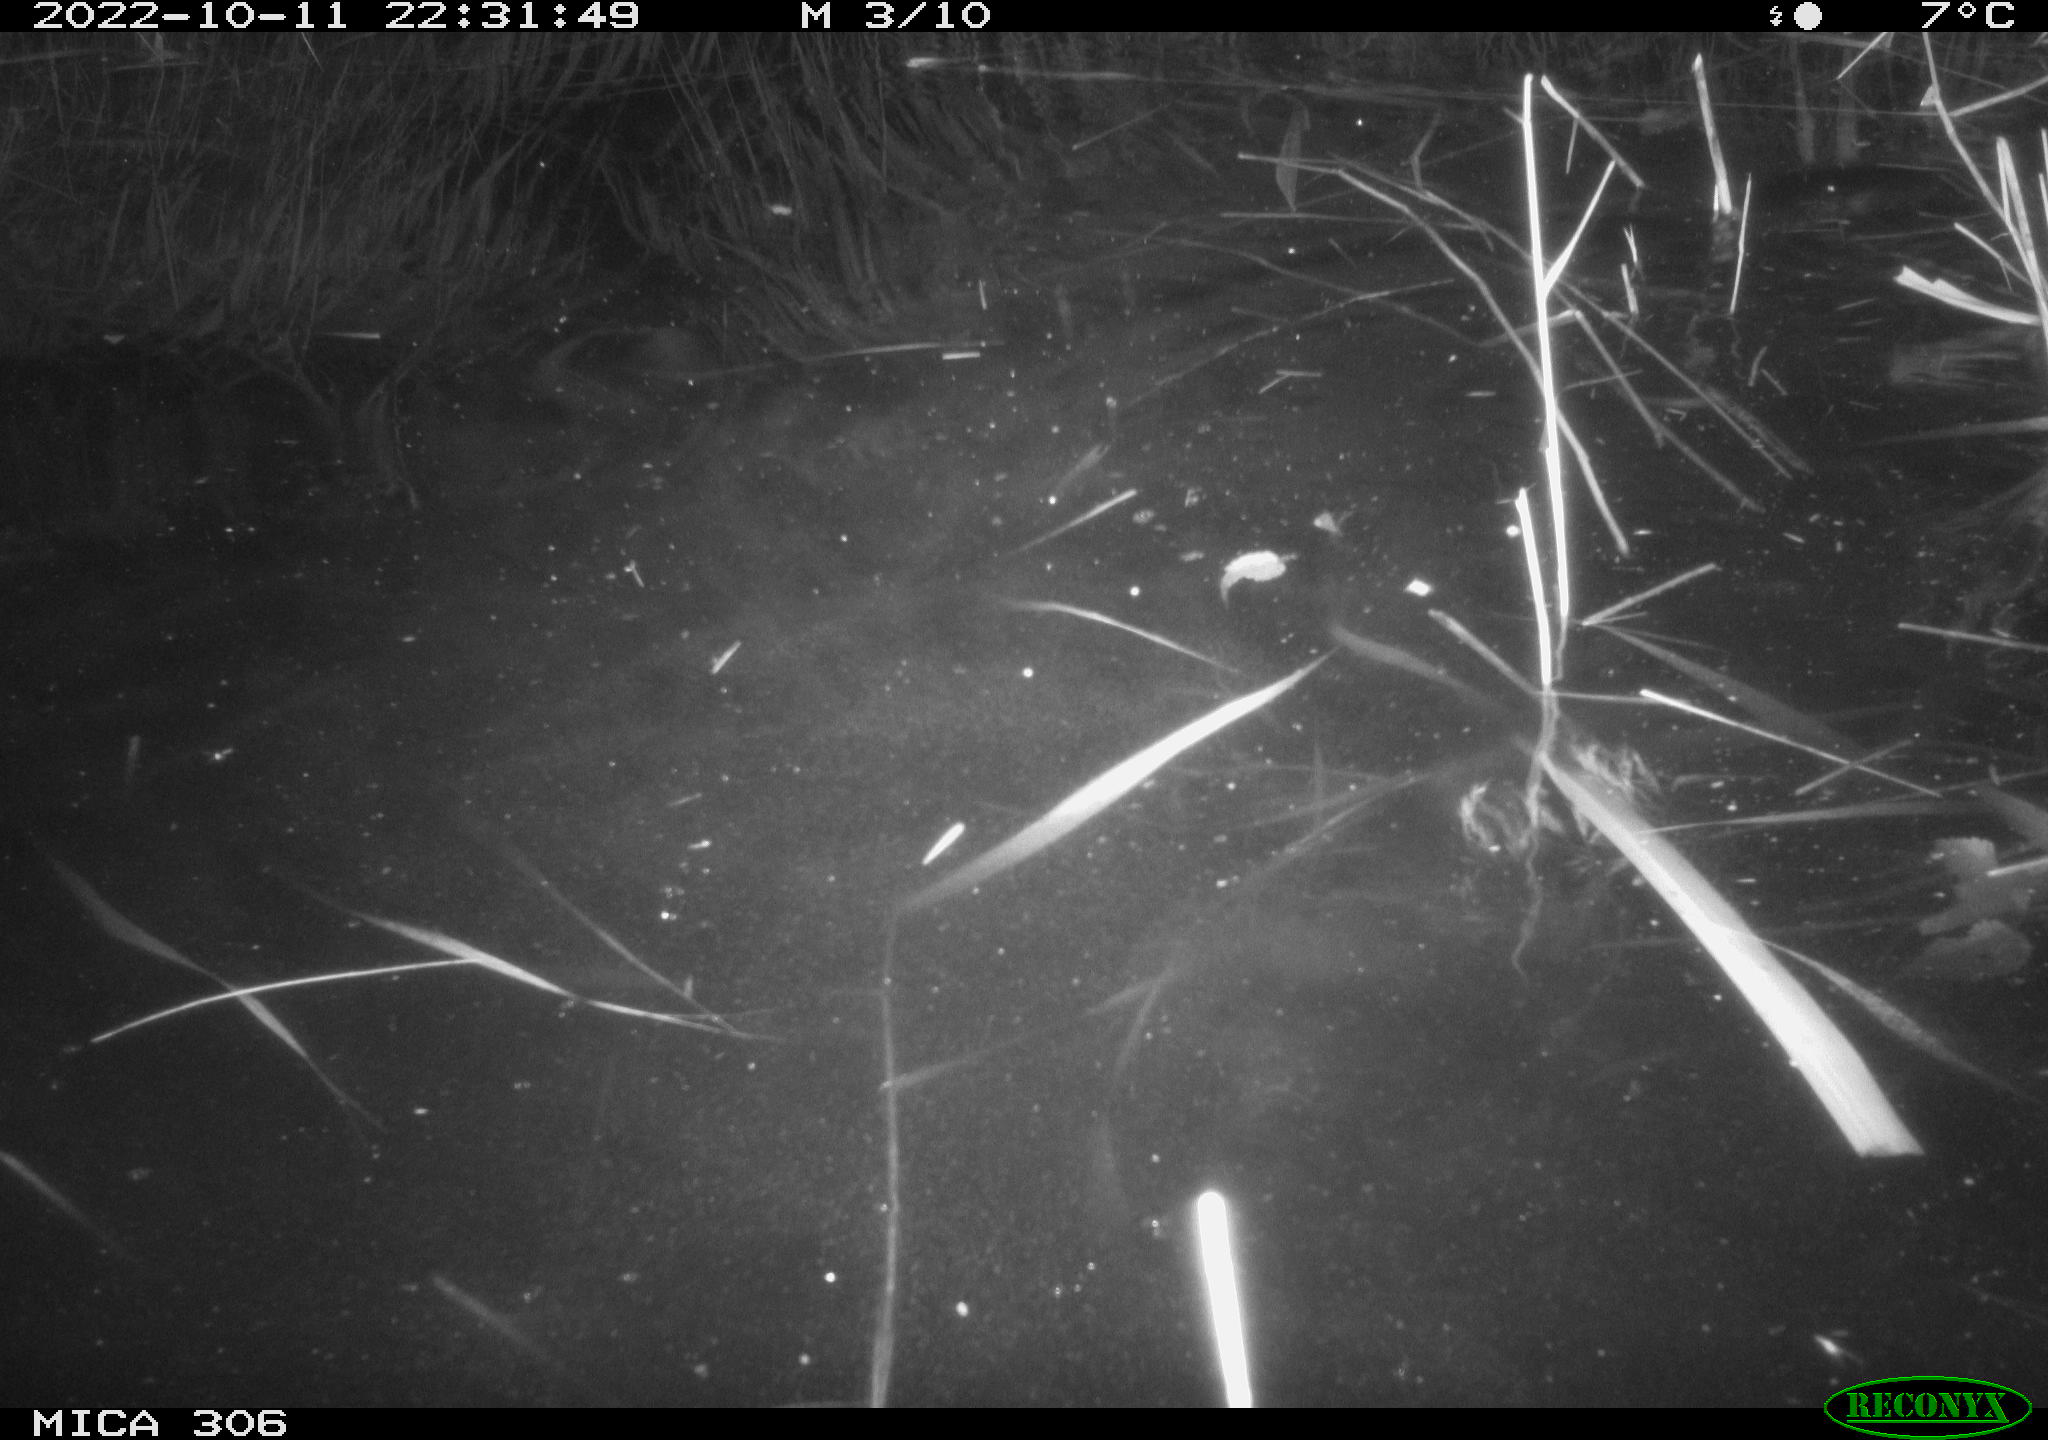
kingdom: Animalia
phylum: Chordata
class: Mammalia
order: Rodentia
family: Muridae
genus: Rattus
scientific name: Rattus norvegicus
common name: Brown rat
